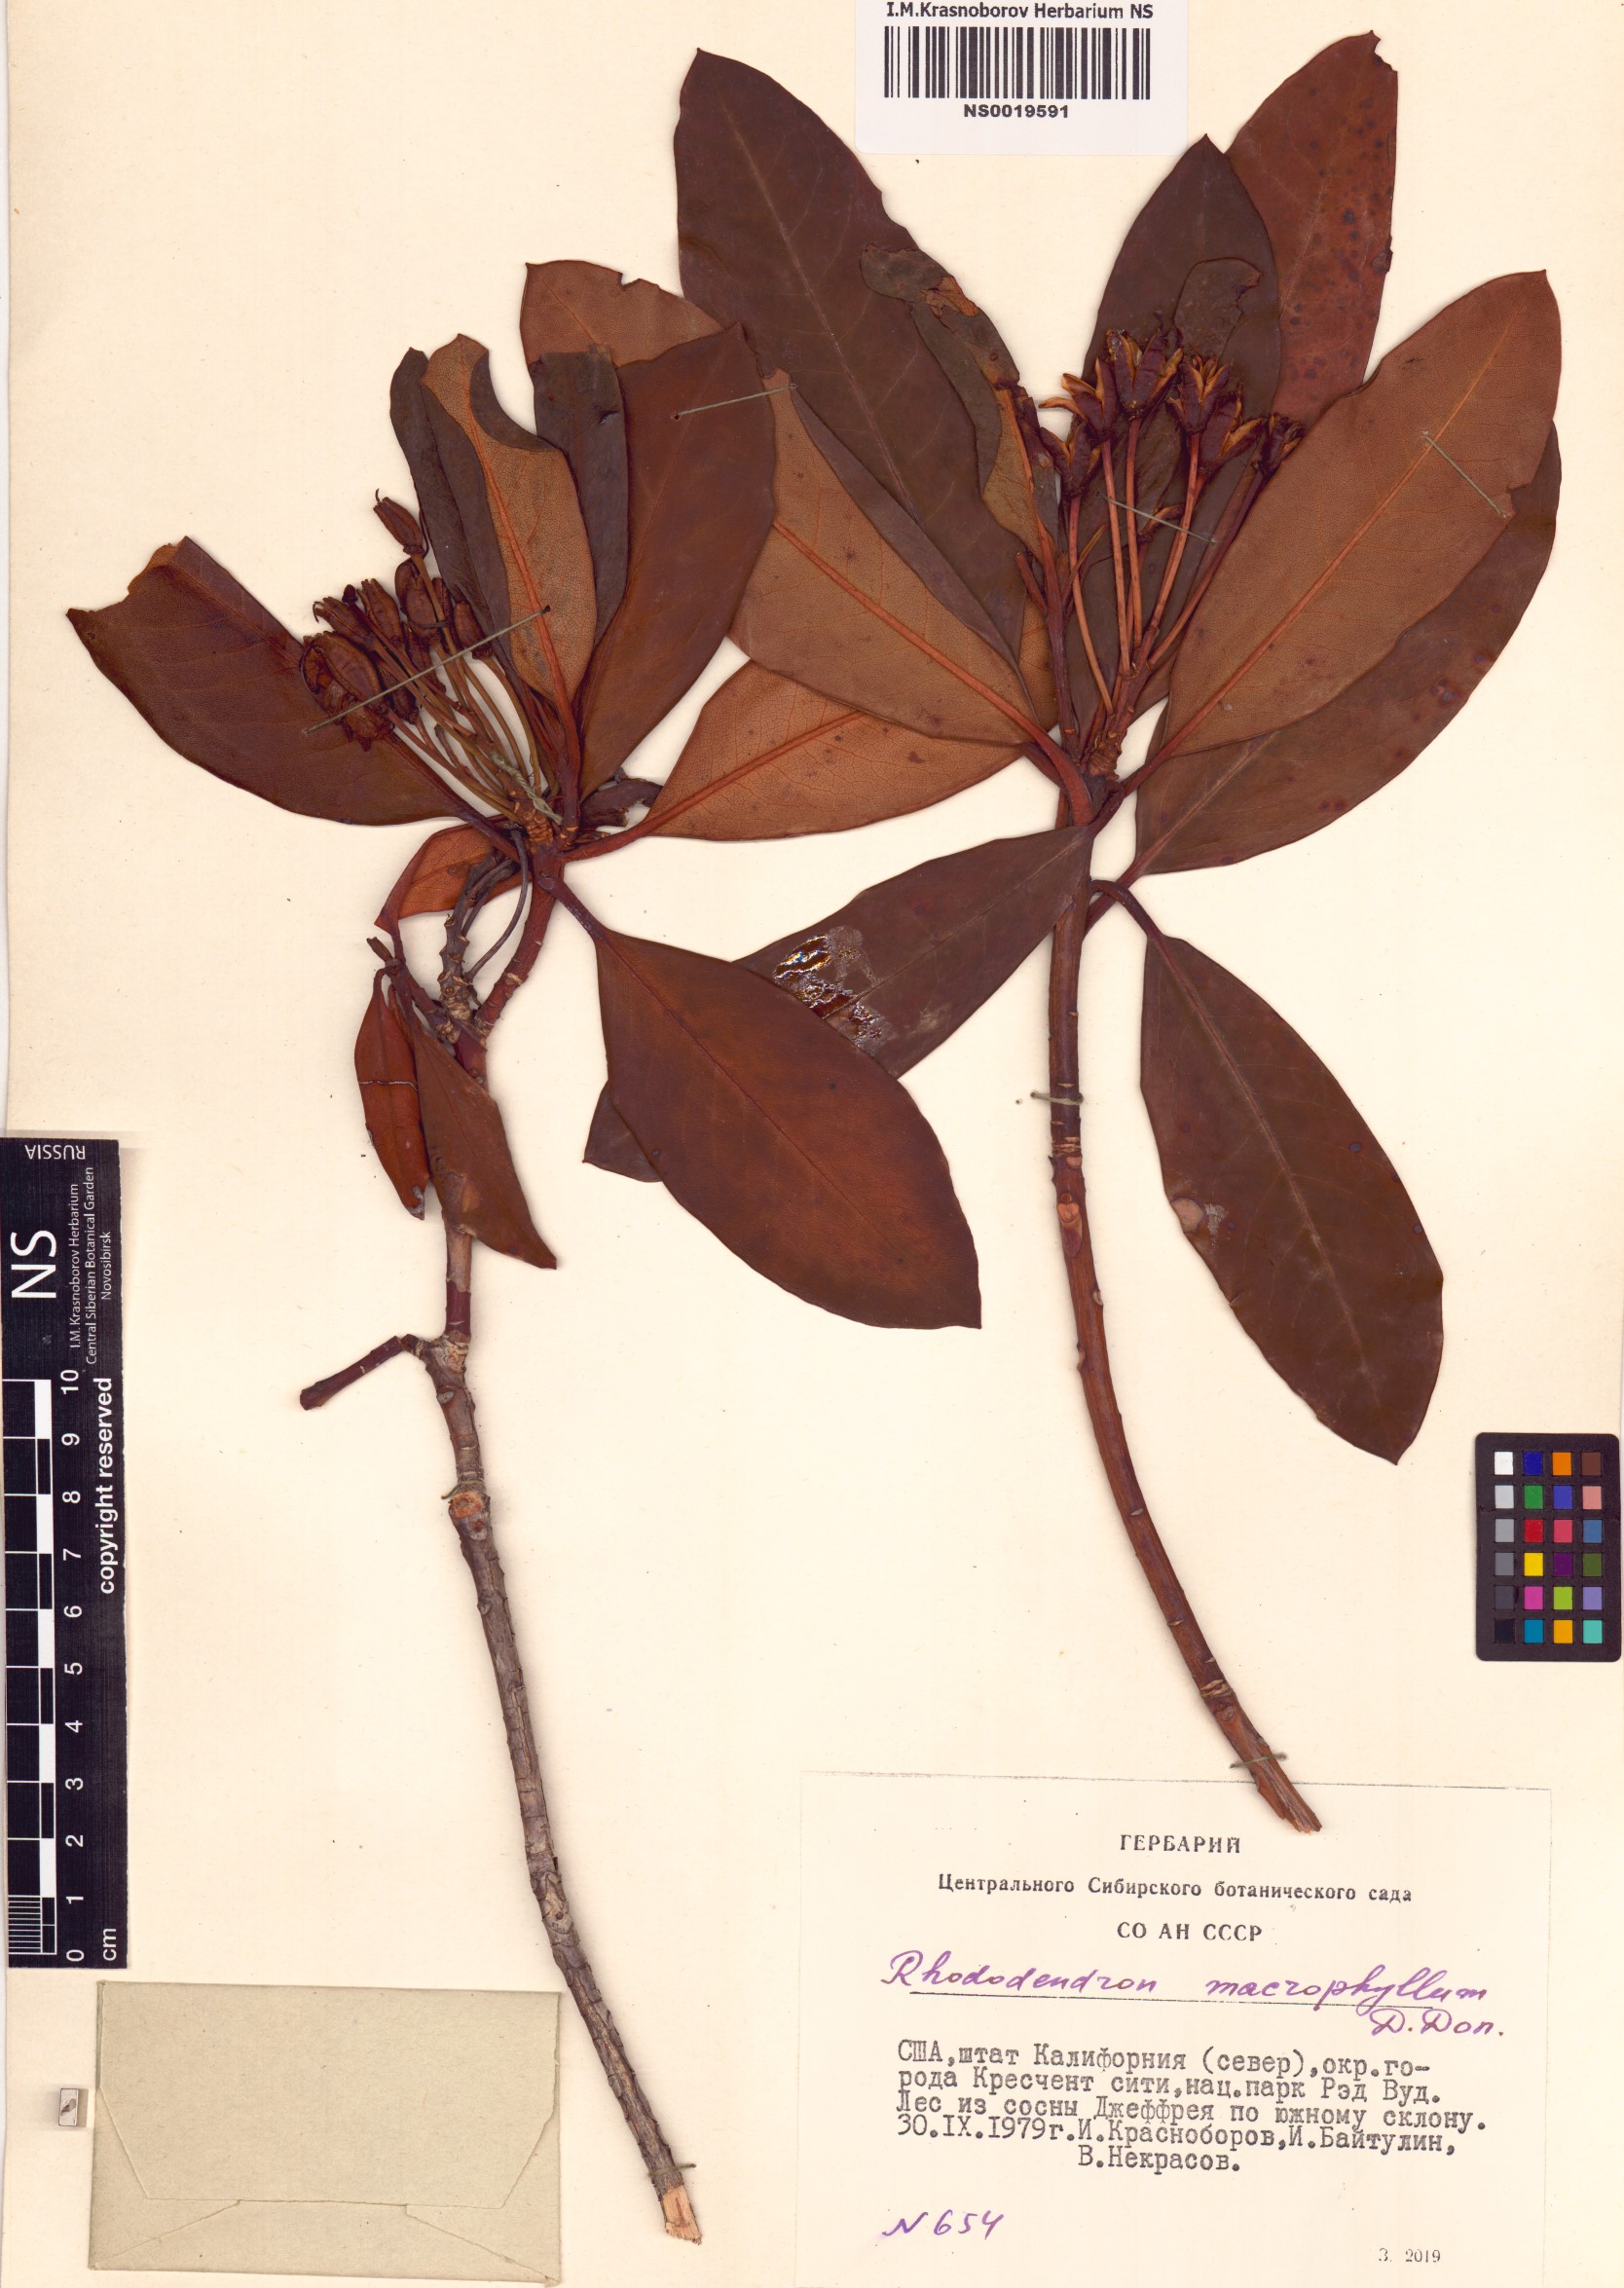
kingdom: Plantae
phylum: Tracheophyta
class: Magnoliopsida
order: Ericales
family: Ericaceae
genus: Rhododendron
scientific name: Rhododendron macrophyllum
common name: California rose bay
